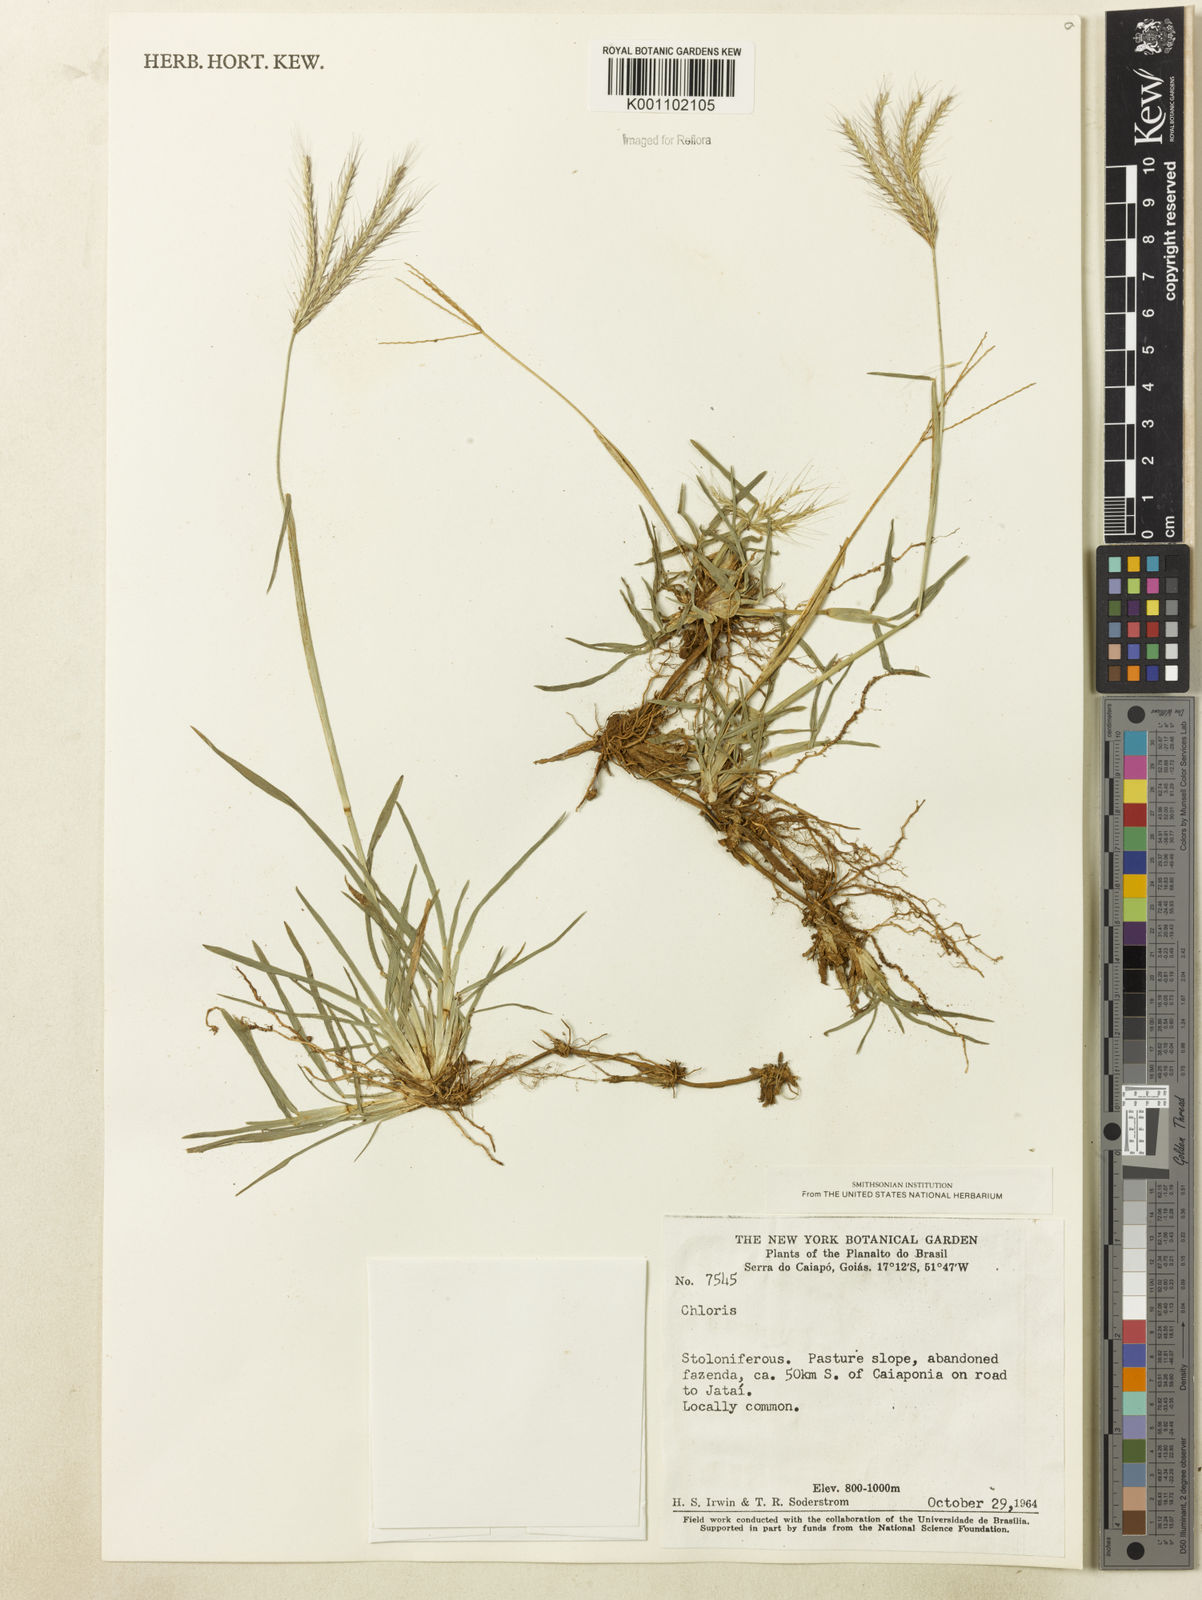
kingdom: Plantae
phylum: Tracheophyta
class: Liliopsida
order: Poales
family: Poaceae
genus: Chloris
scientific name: Chloris
